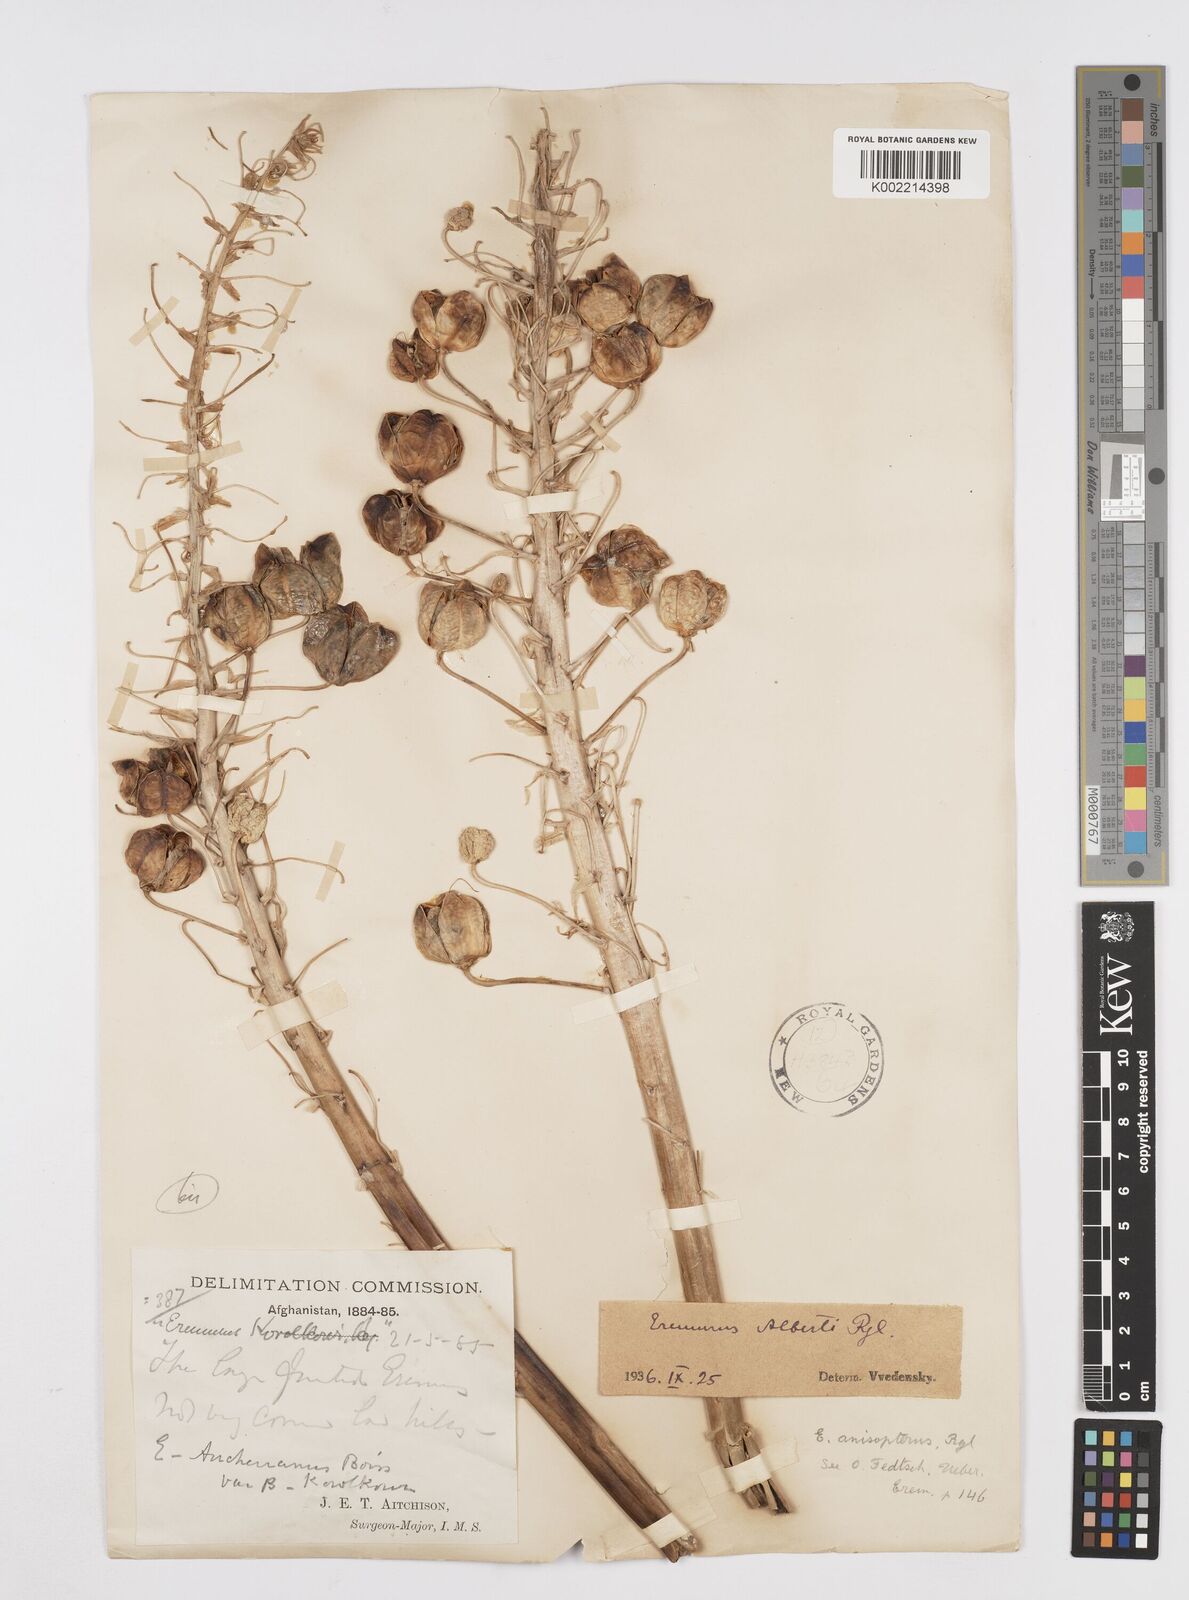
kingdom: Plantae
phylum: Tracheophyta
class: Liliopsida
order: Asparagales
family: Asphodelaceae
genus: Eremurus
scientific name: Eremurus alberti
